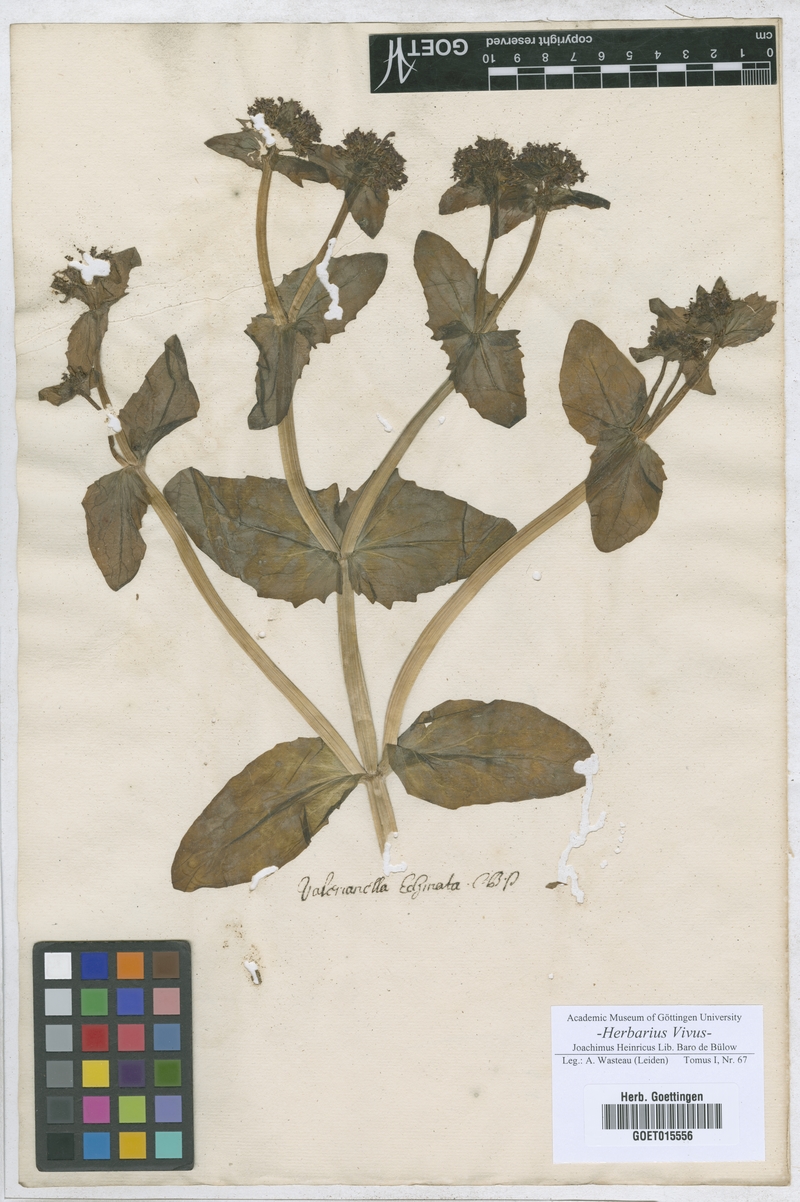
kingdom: Plantae
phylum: Tracheophyta
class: Magnoliopsida
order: Dipsacales
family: Caprifoliaceae
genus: Valerianella
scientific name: Valerianella echinata
